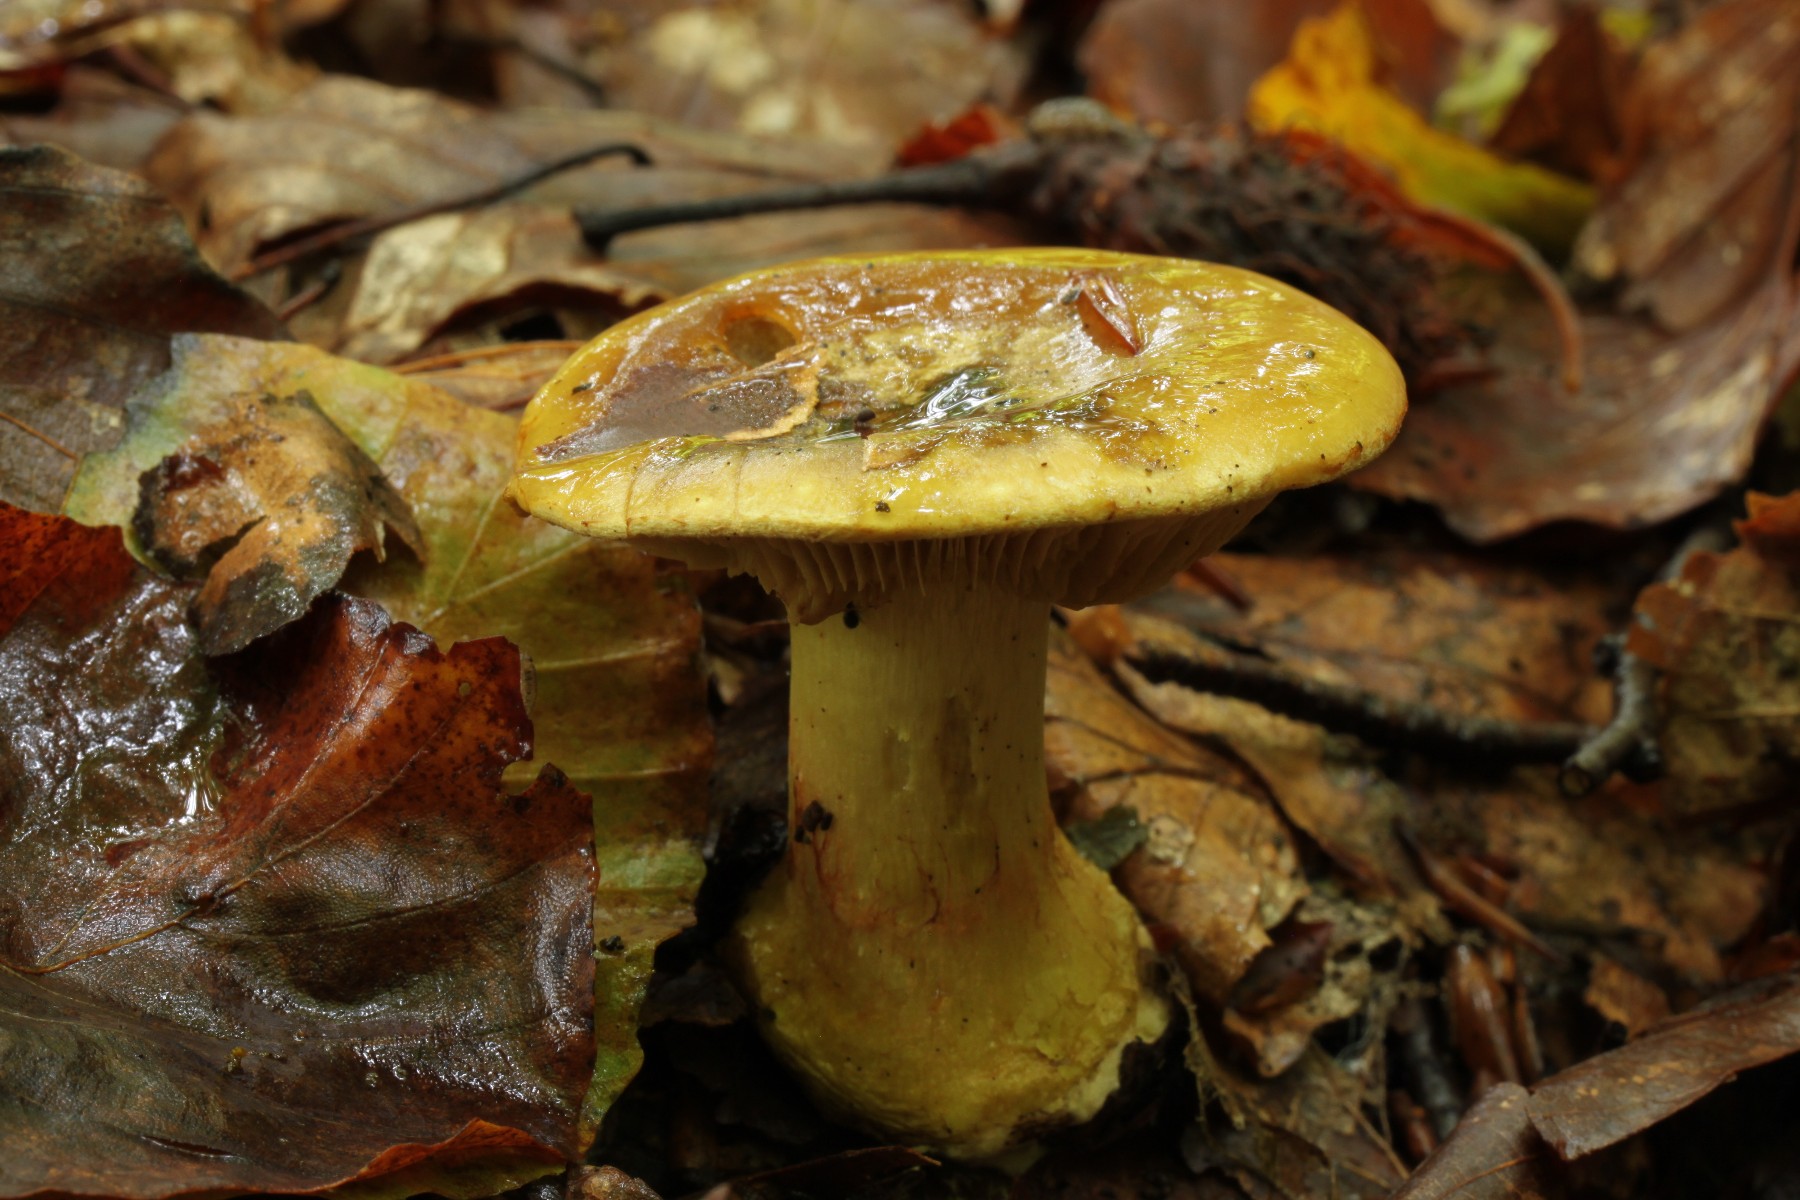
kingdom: Fungi
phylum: Basidiomycota
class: Agaricomycetes
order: Agaricales
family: Cortinariaceae
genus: Calonarius
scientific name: Calonarius citrinus
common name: citrongul slørhat
